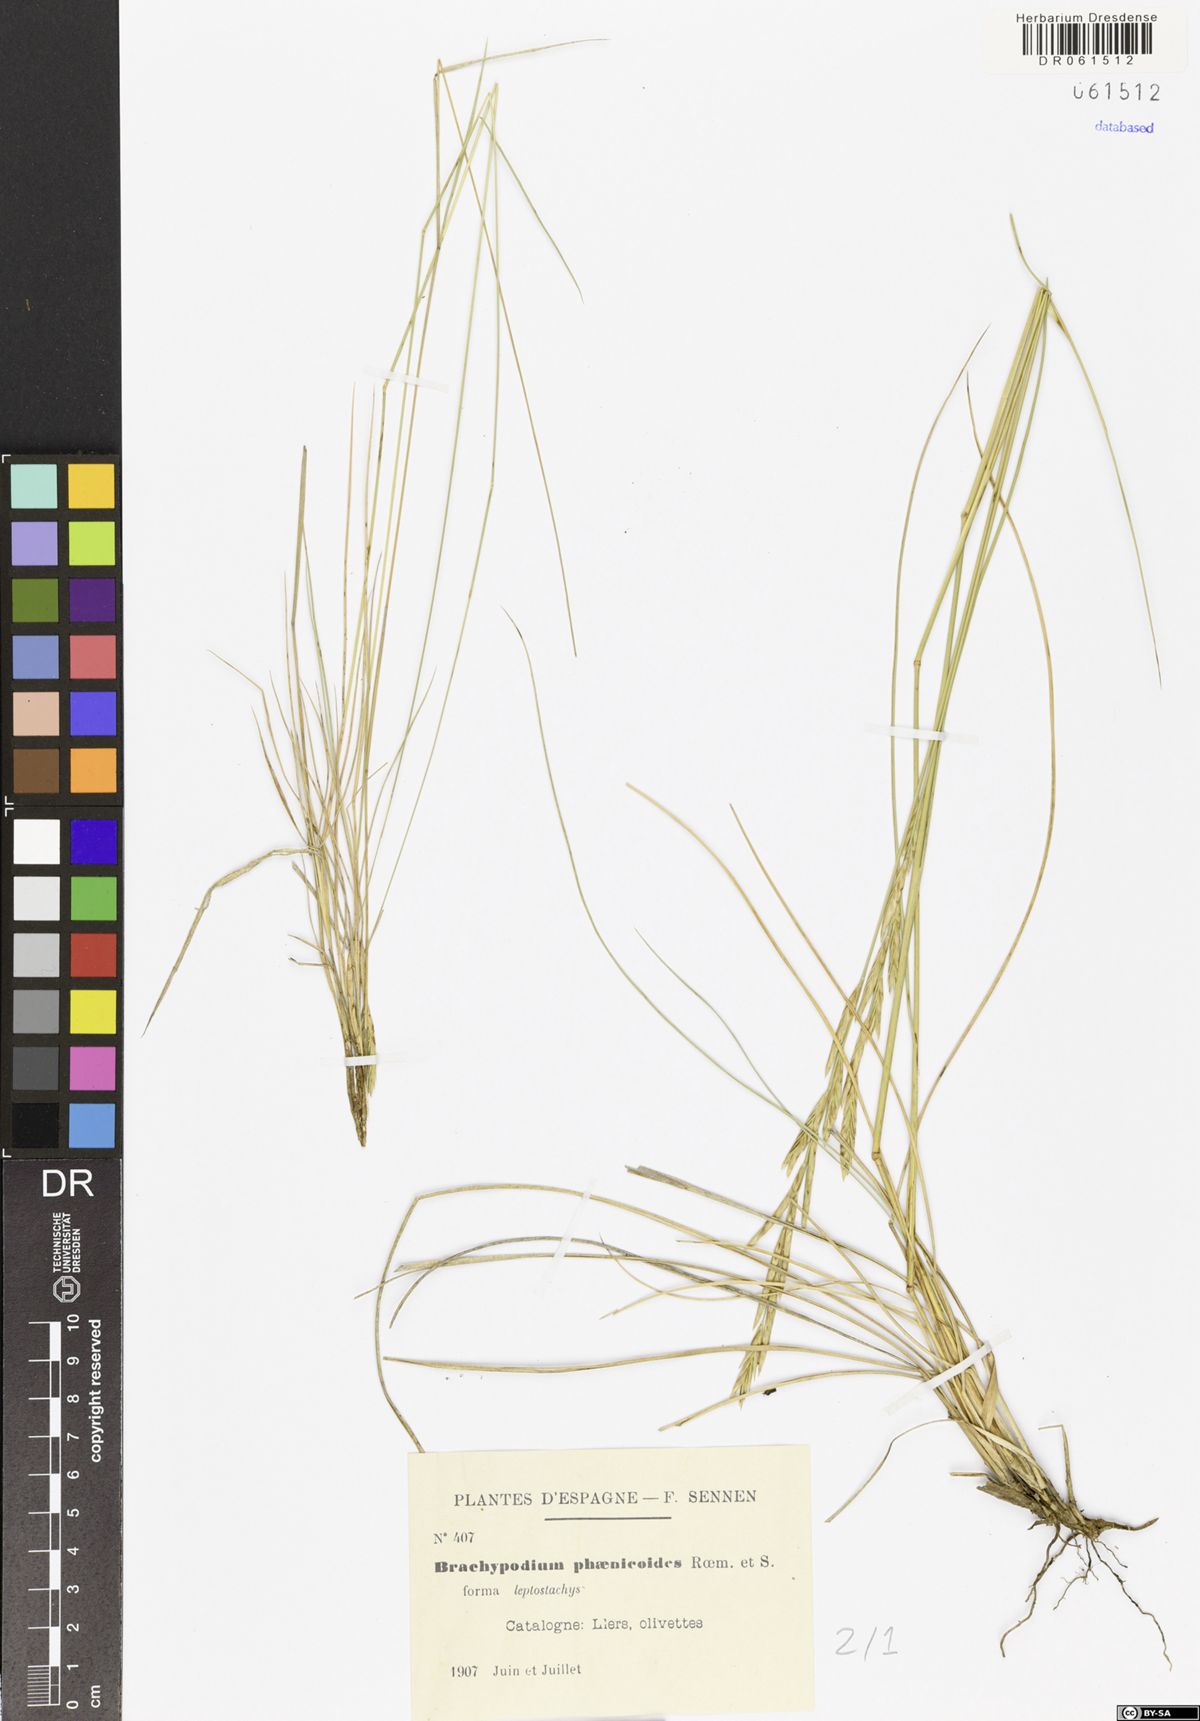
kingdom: Plantae
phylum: Tracheophyta
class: Liliopsida
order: Poales
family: Poaceae
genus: Brachypodium
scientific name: Brachypodium phoenicoides
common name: Thinleaf false brome
